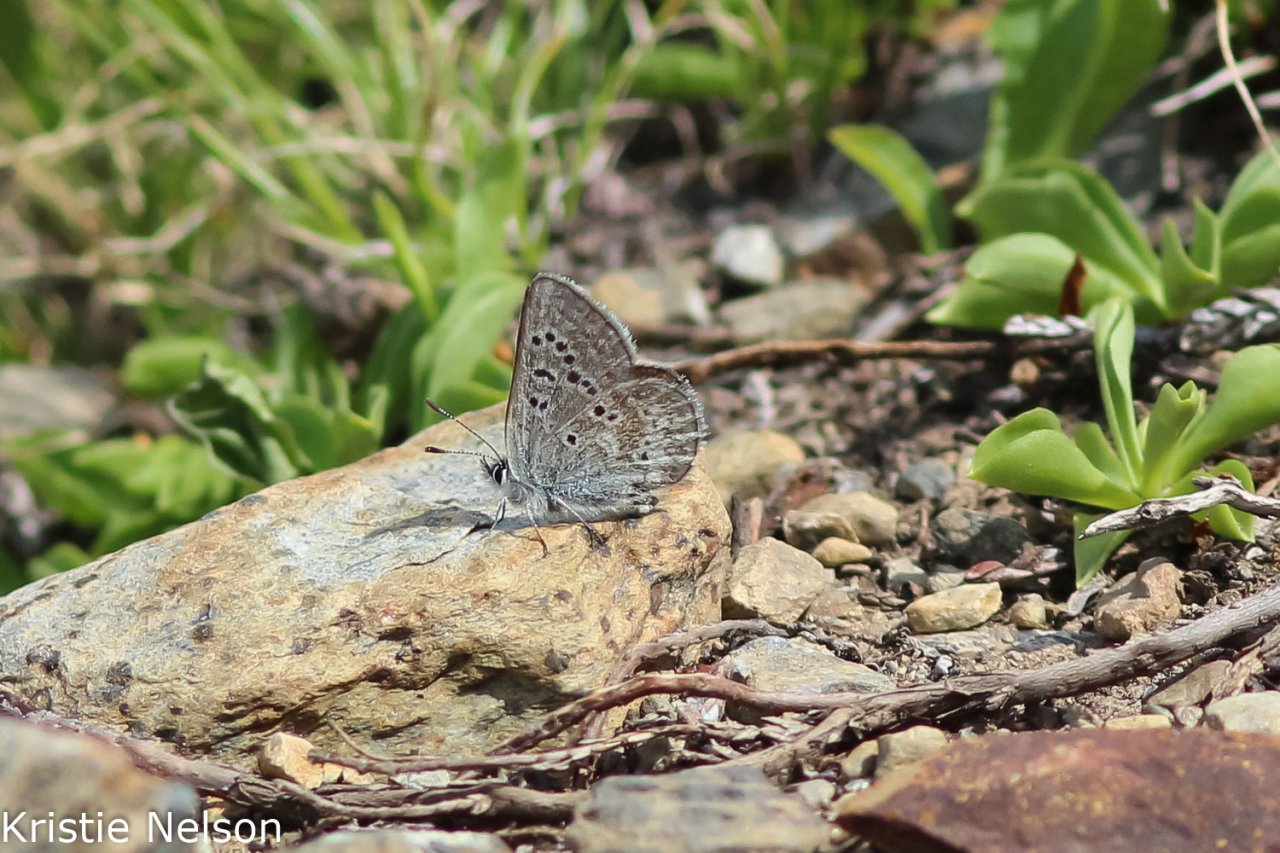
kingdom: Animalia
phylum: Arthropoda
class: Insecta
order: Lepidoptera
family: Lycaenidae
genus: Agriades
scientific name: Agriades glandon
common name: Arctic Blue
